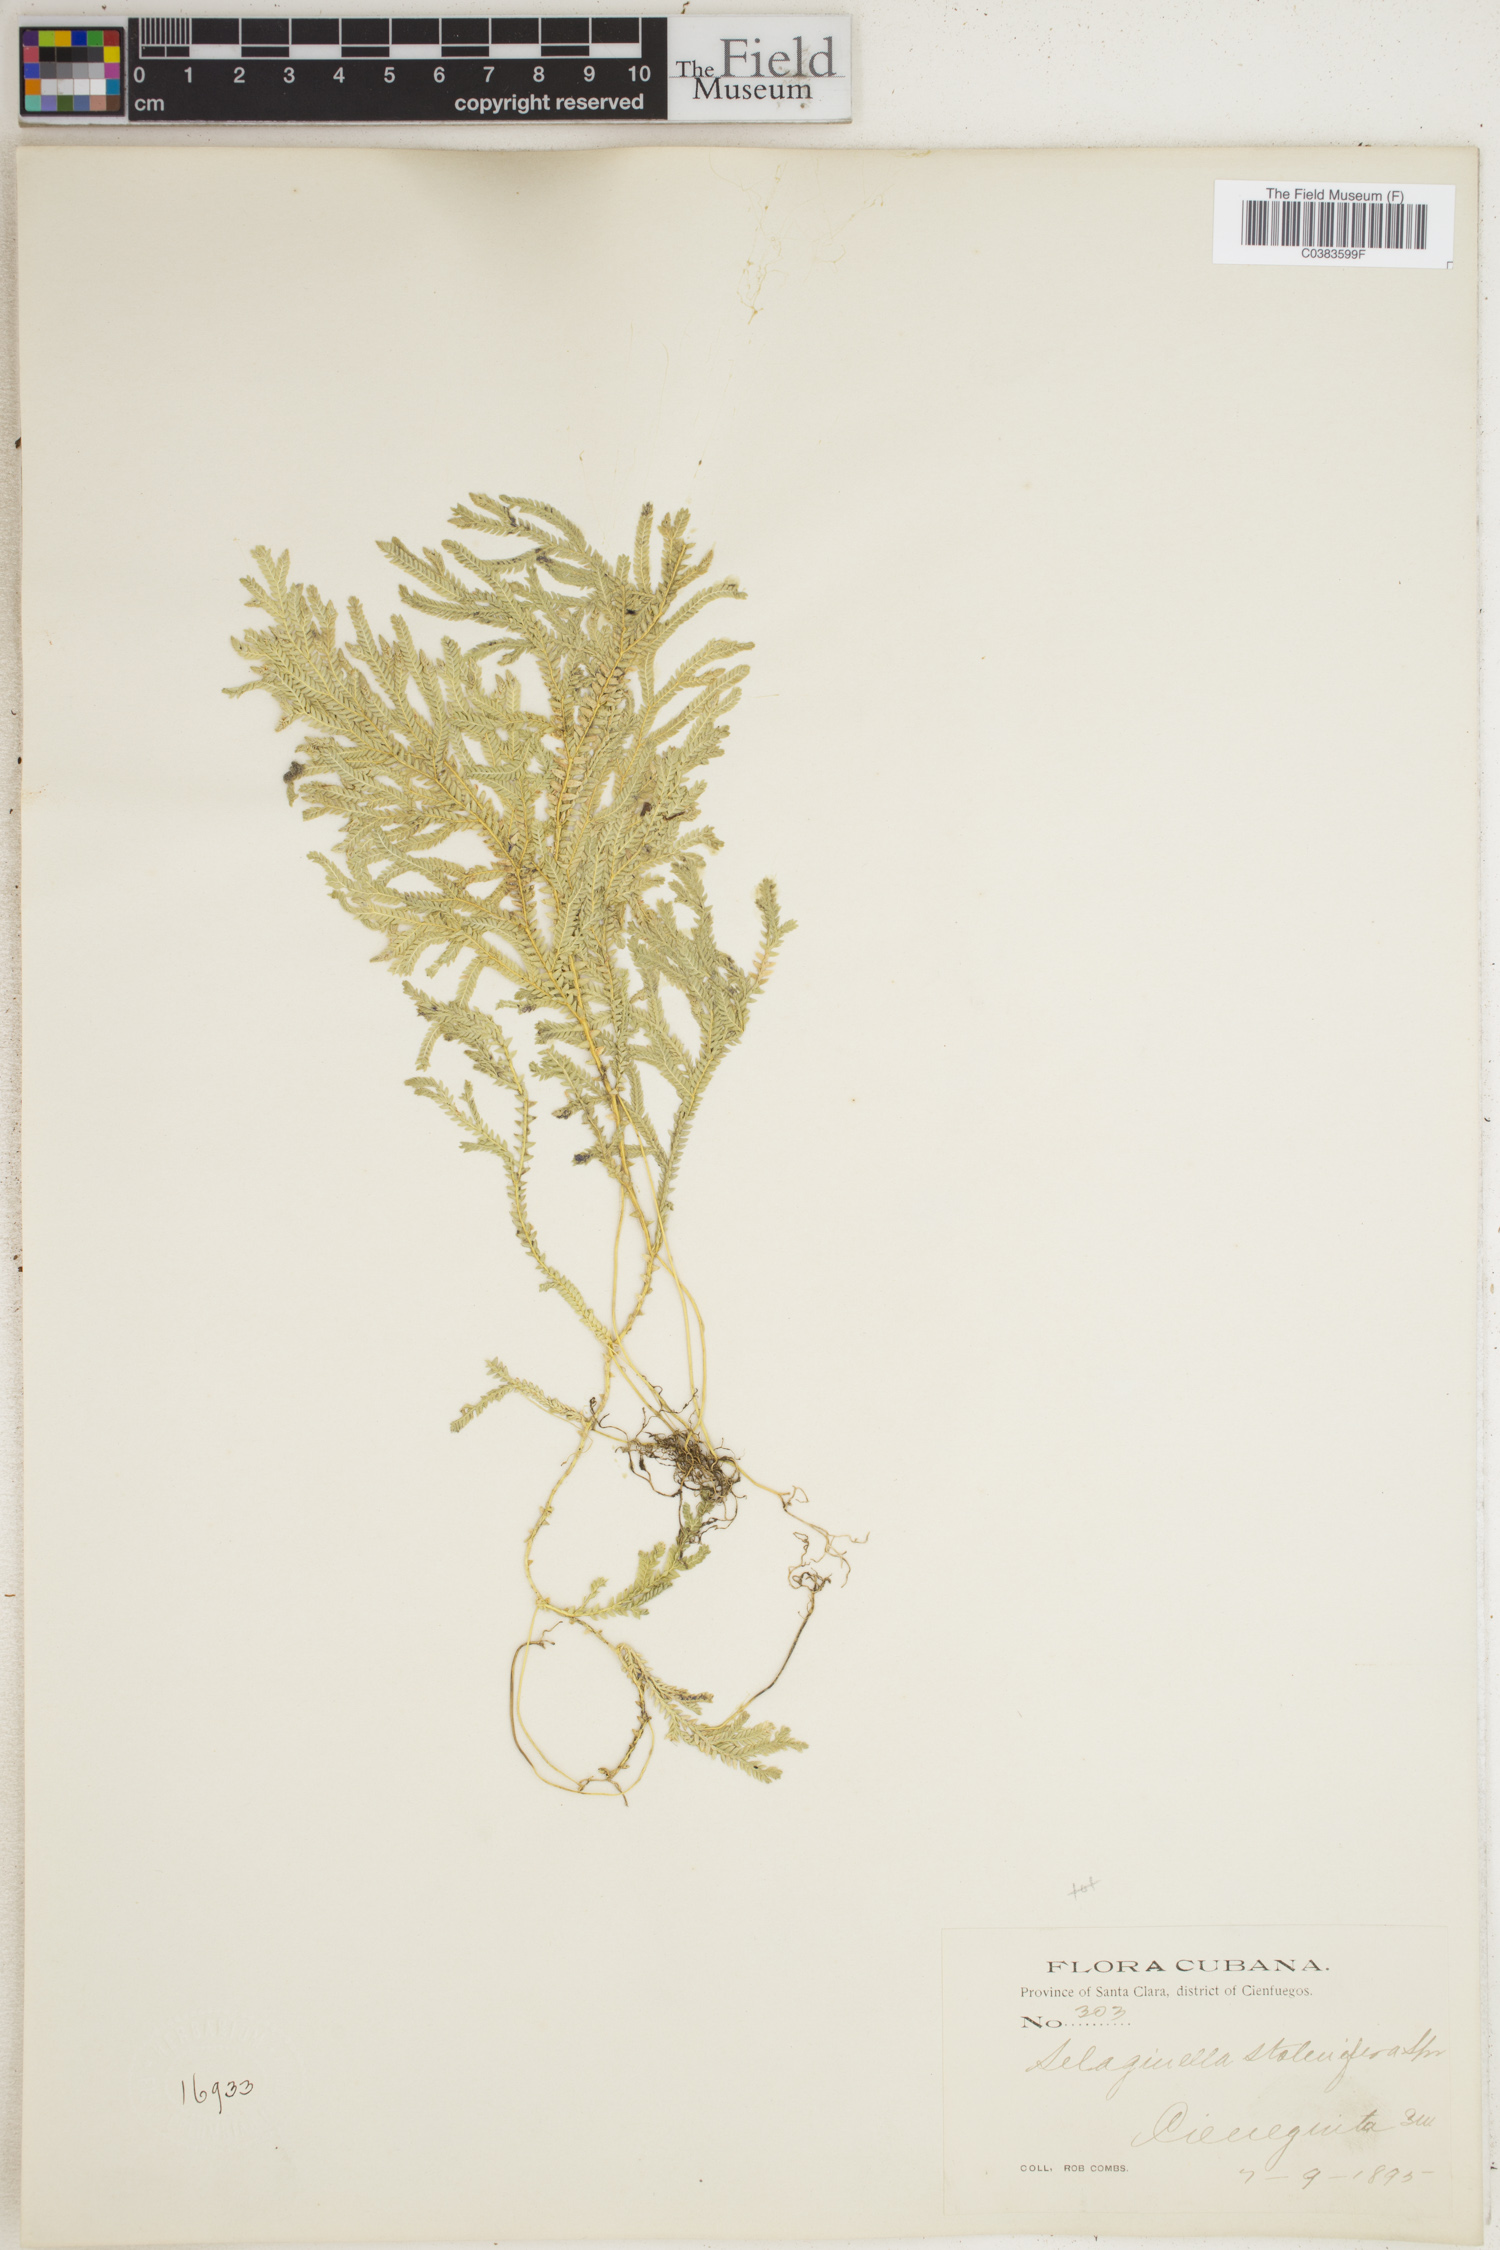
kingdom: Plantae
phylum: Tracheophyta
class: Lycopodiopsida
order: Selaginellales
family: Selaginellaceae
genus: Selaginella
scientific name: Selaginella plumosa
